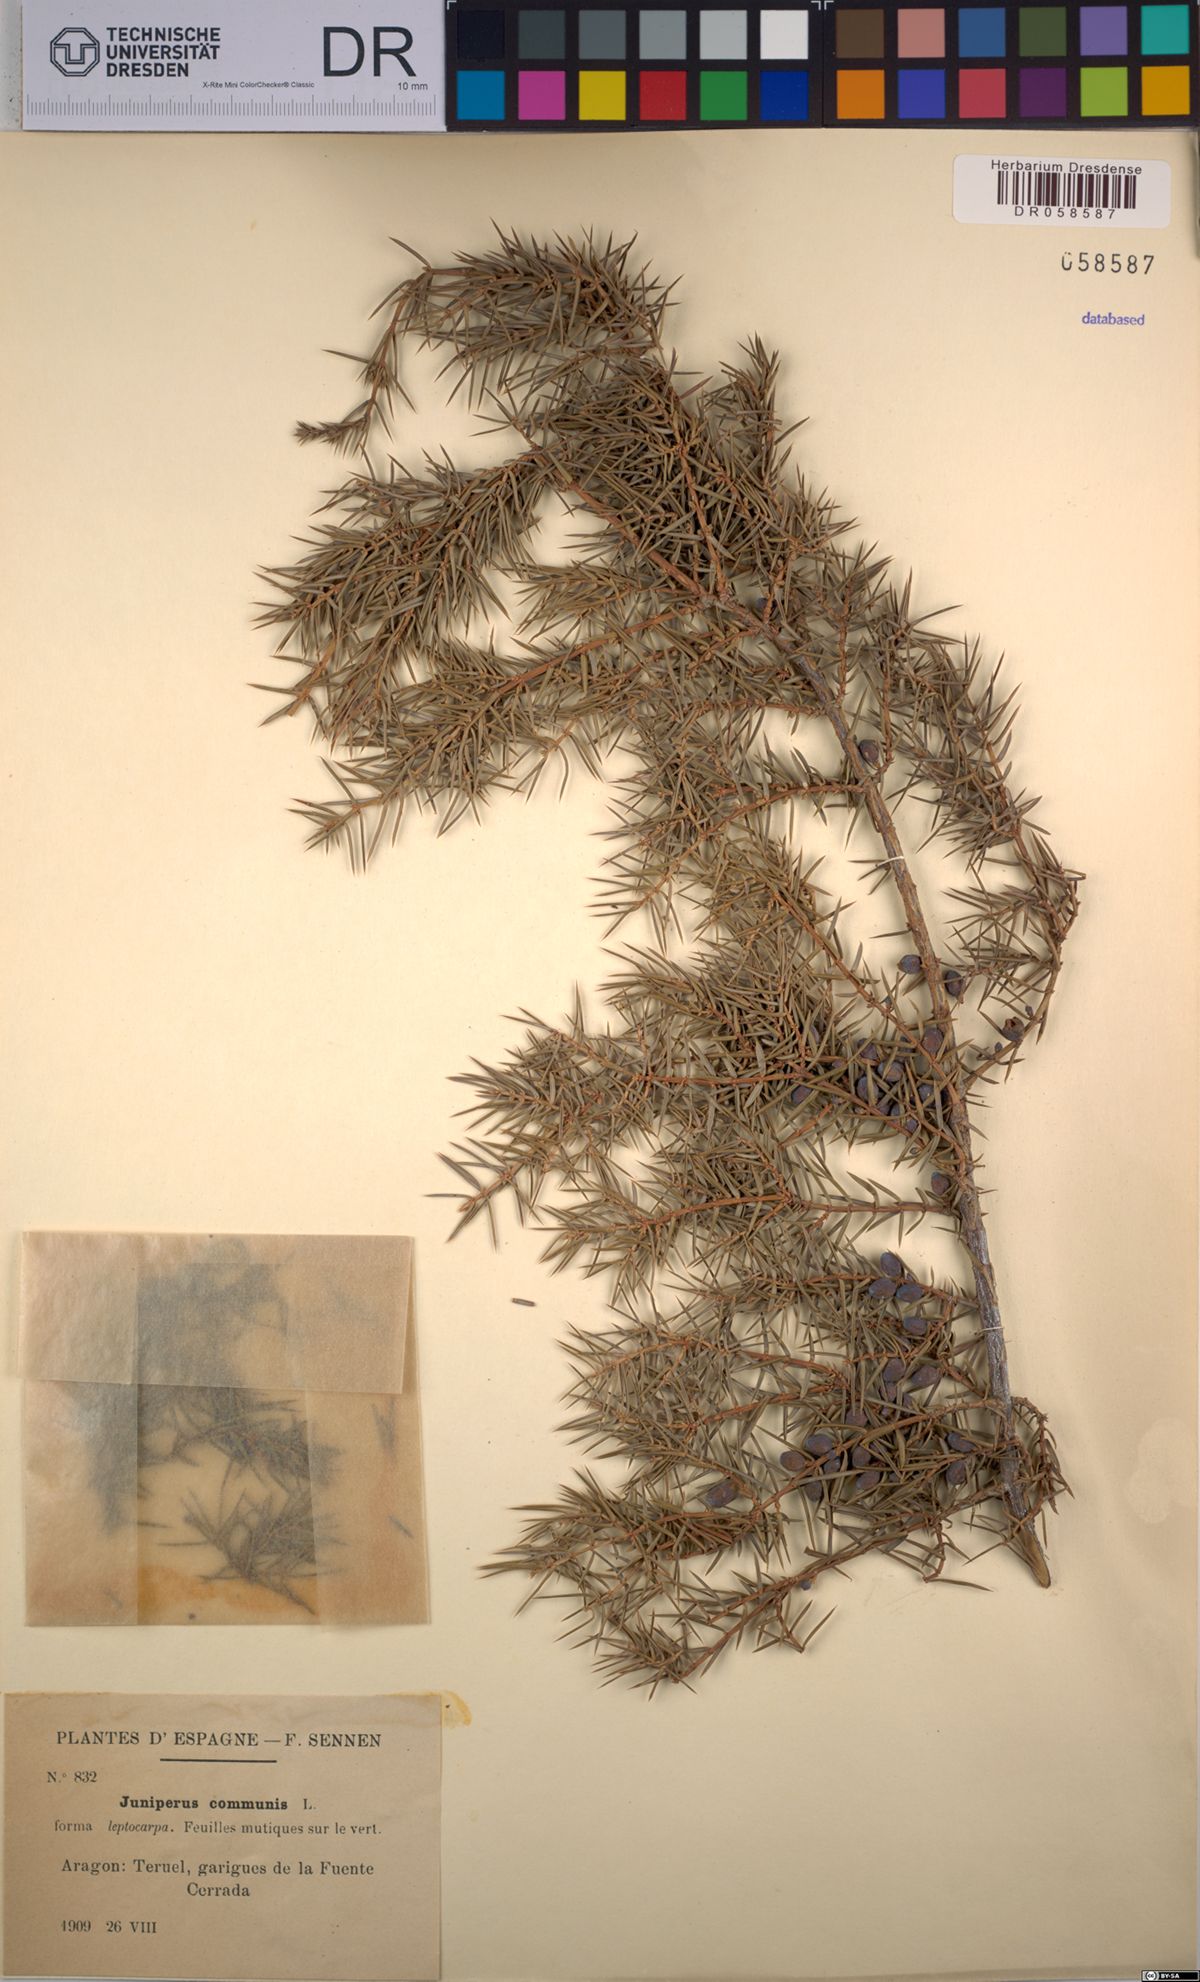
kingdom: Plantae
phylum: Tracheophyta
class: Pinopsida
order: Pinales
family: Cupressaceae
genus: Juniperus
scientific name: Juniperus communis
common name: Common juniper
